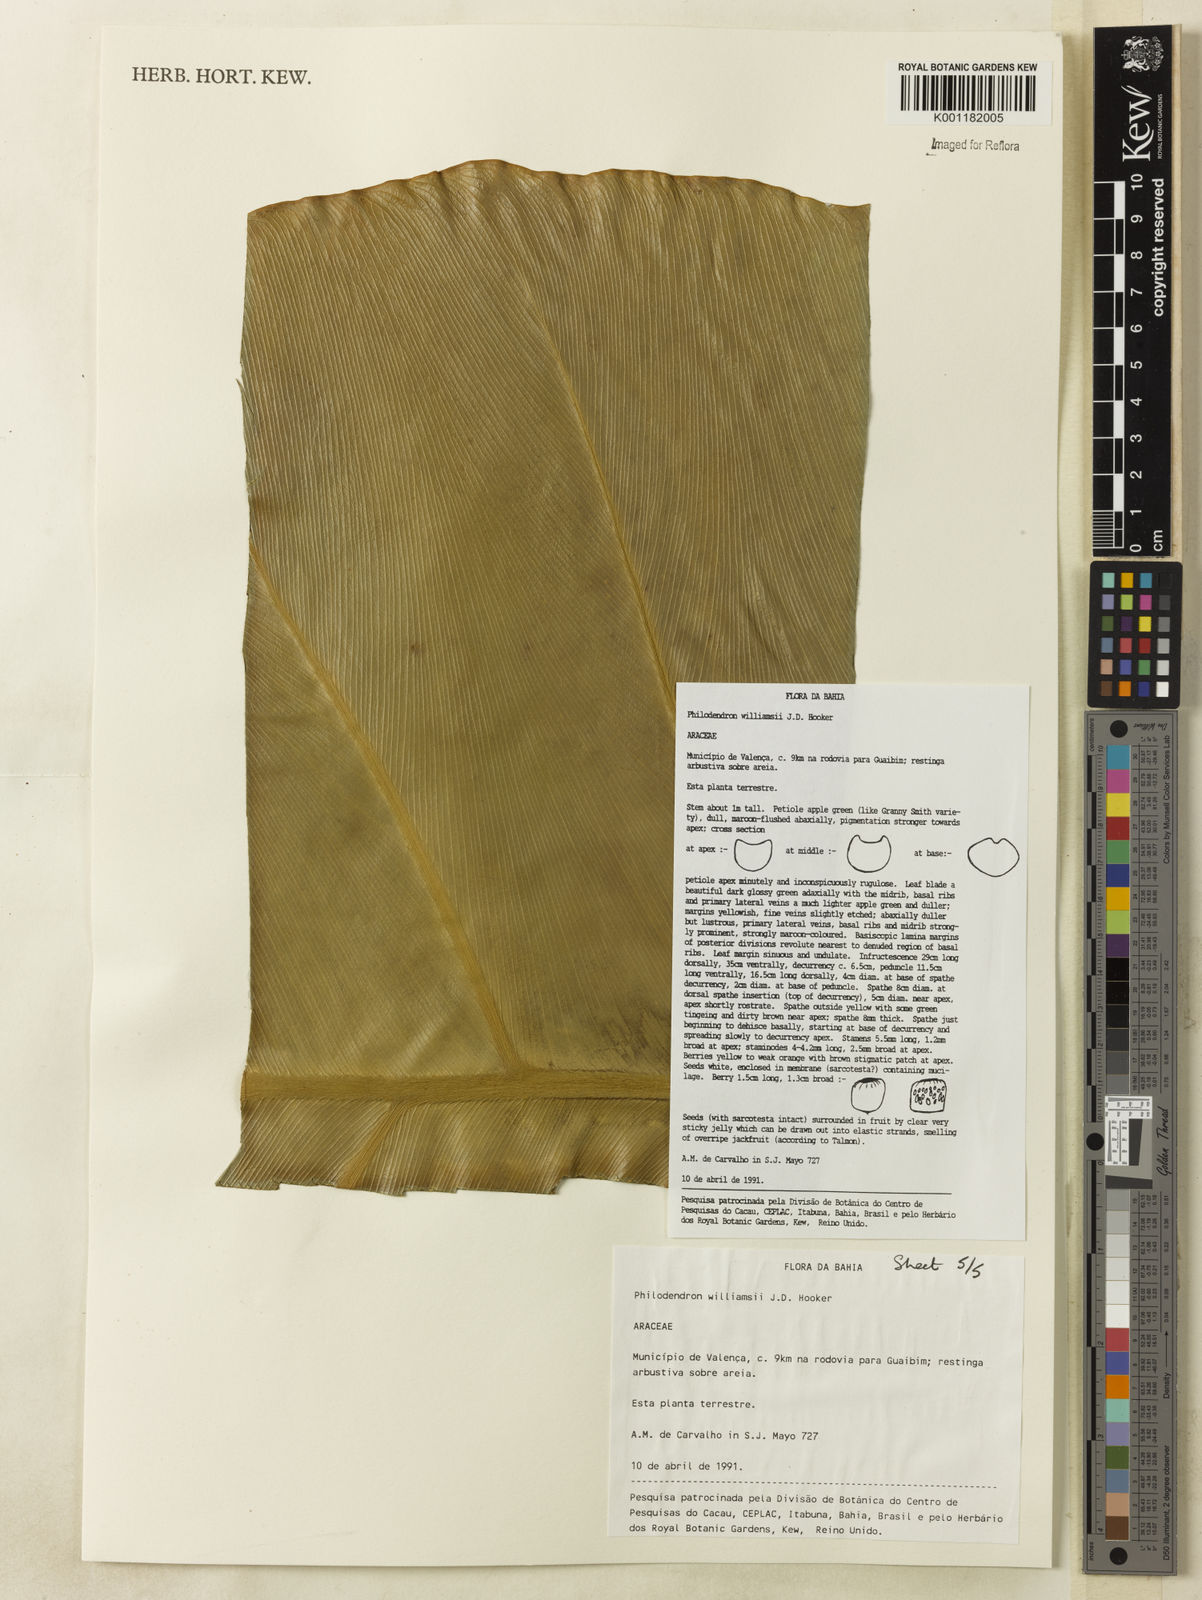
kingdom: Plantae
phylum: Tracheophyta
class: Liliopsida
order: Alismatales
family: Araceae
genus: Thaumatophyllum
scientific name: Thaumatophyllum williamsii
